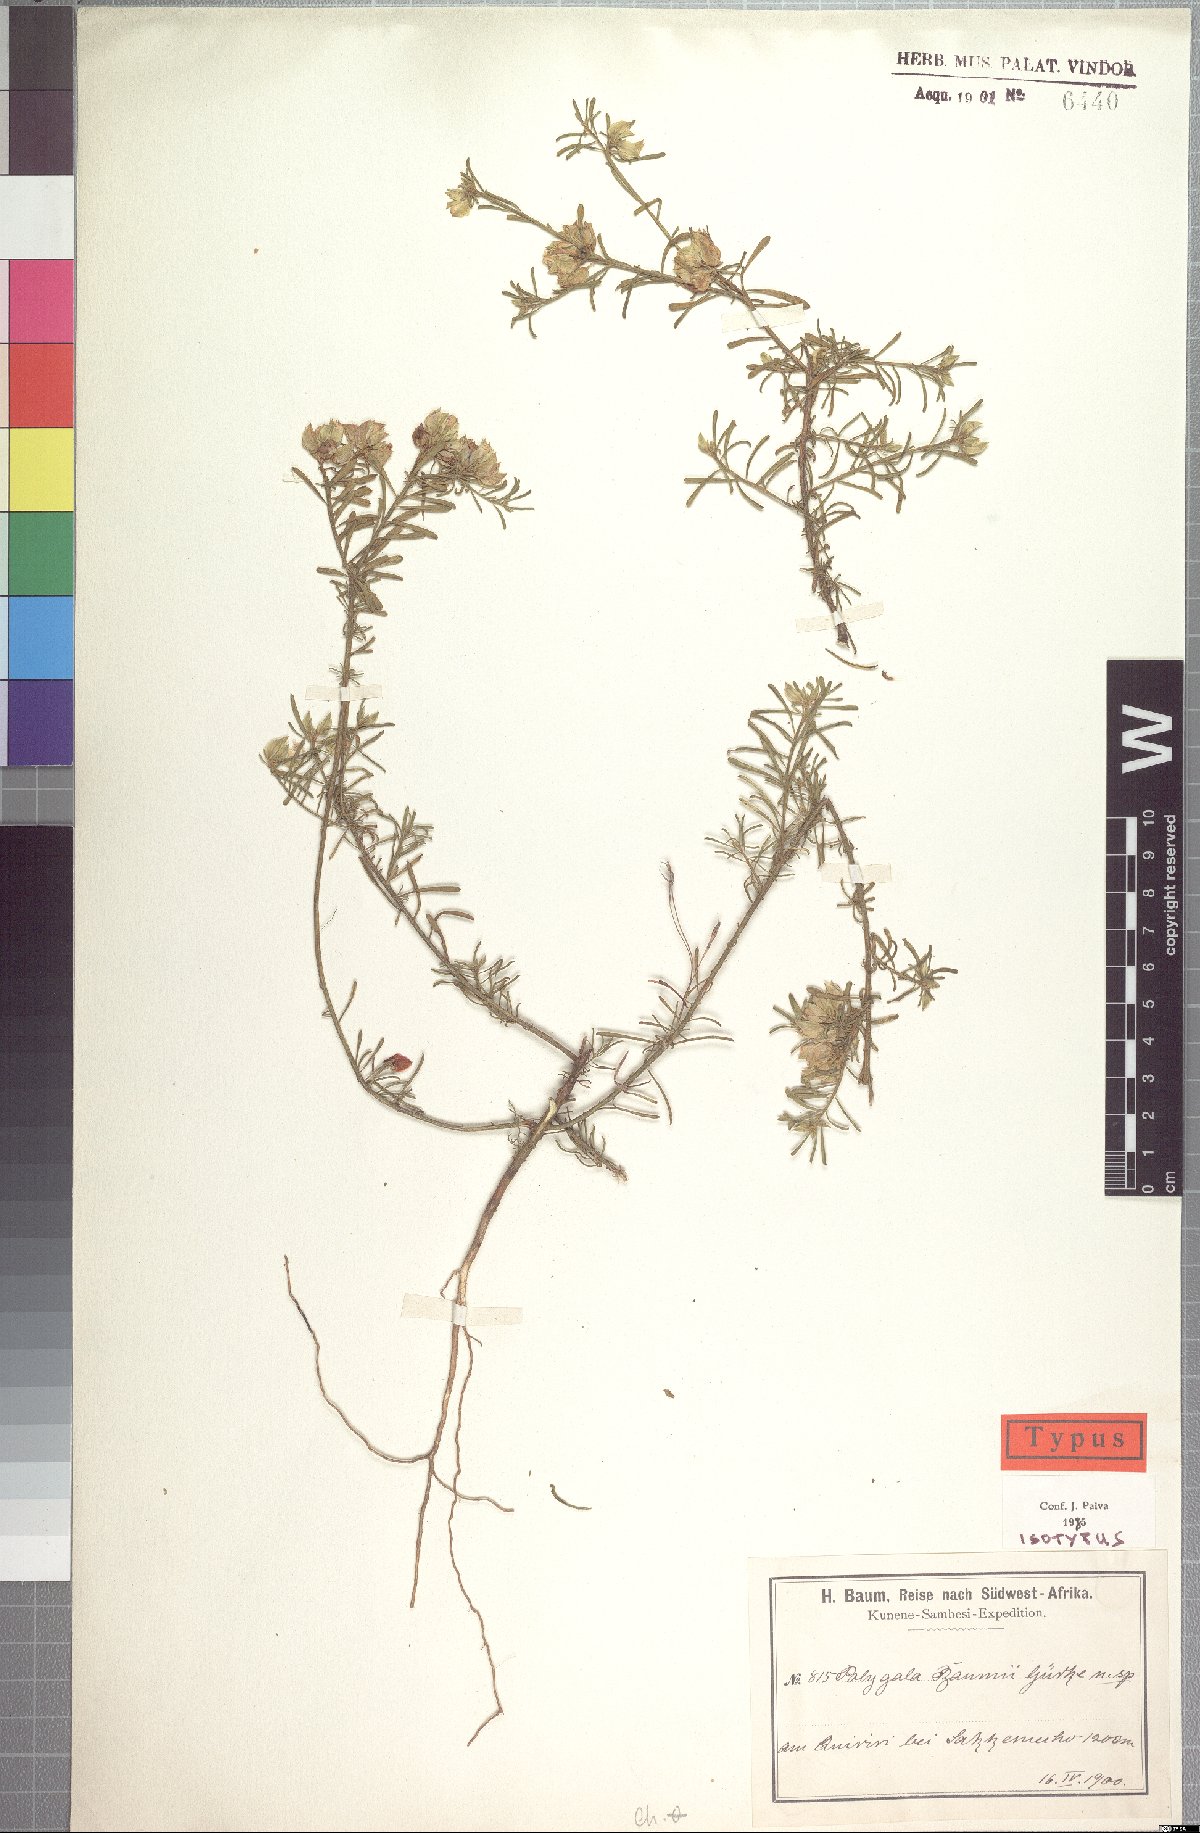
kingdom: Plantae
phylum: Tracheophyta
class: Magnoliopsida
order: Fabales
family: Polygalaceae
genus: Polygala
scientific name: Polygala baumii
